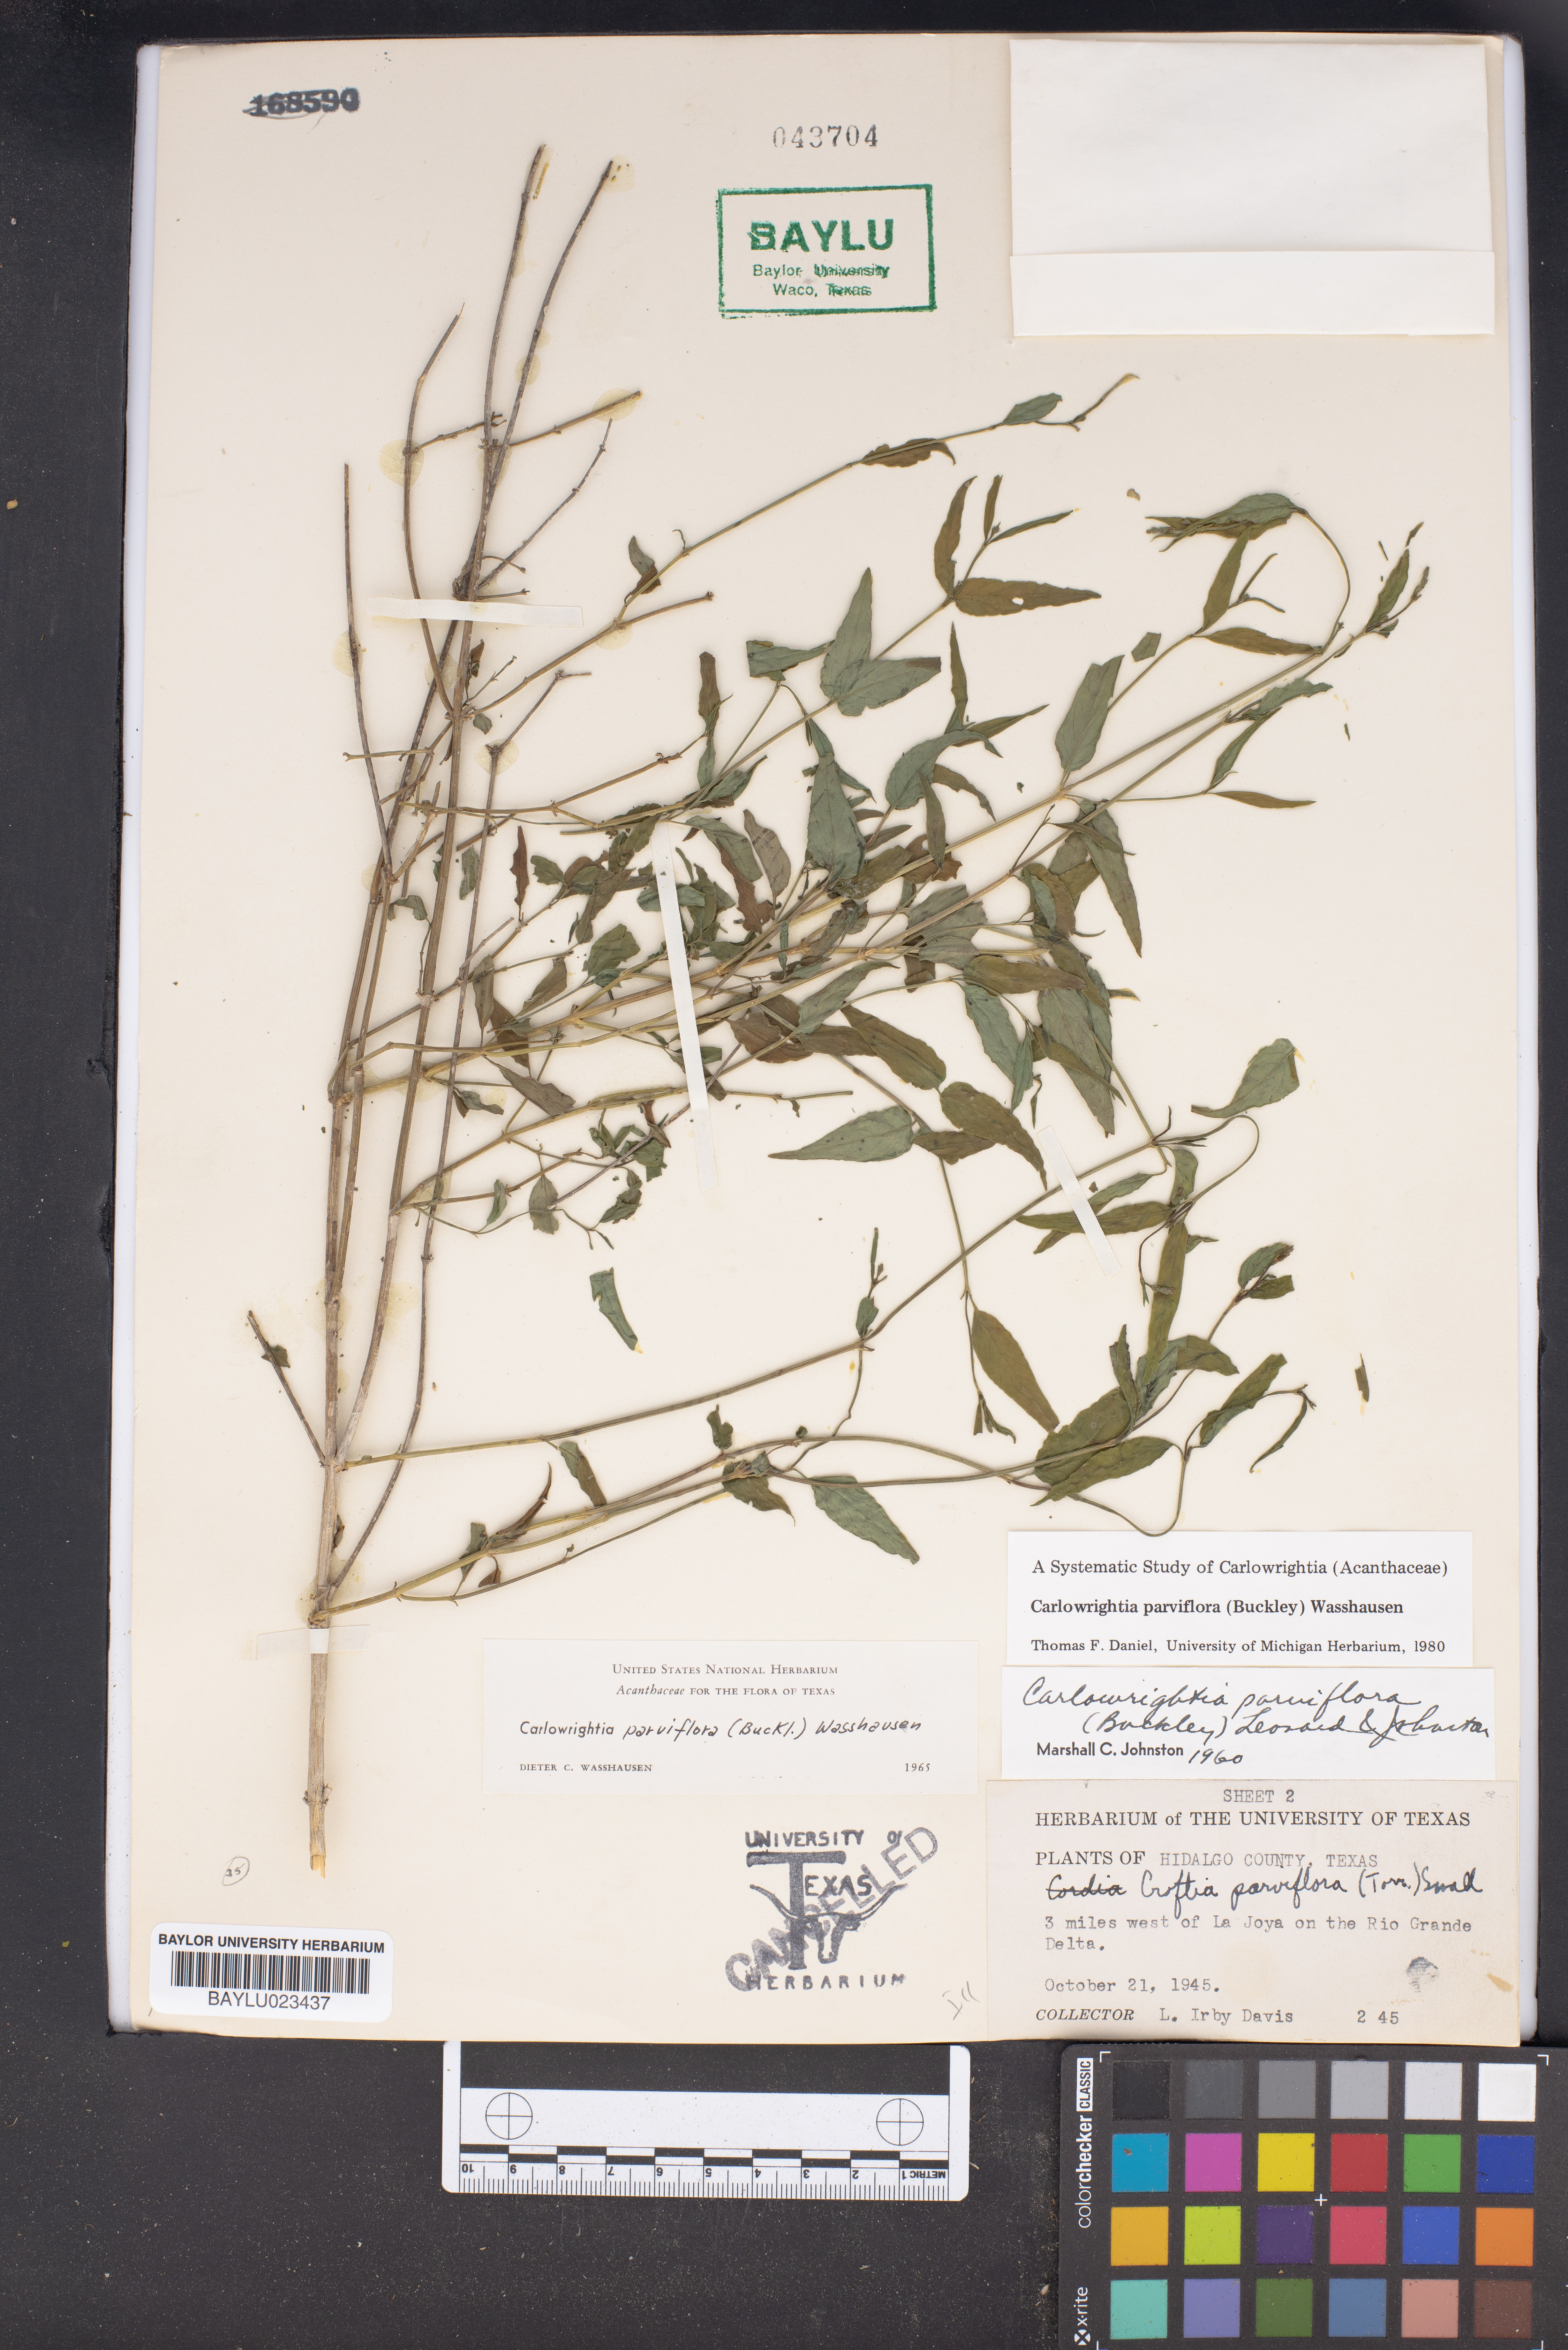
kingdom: Plantae
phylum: Tracheophyta
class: Magnoliopsida
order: Lamiales
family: Acanthaceae
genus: Carlowrightia
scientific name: Carlowrightia parviflora
